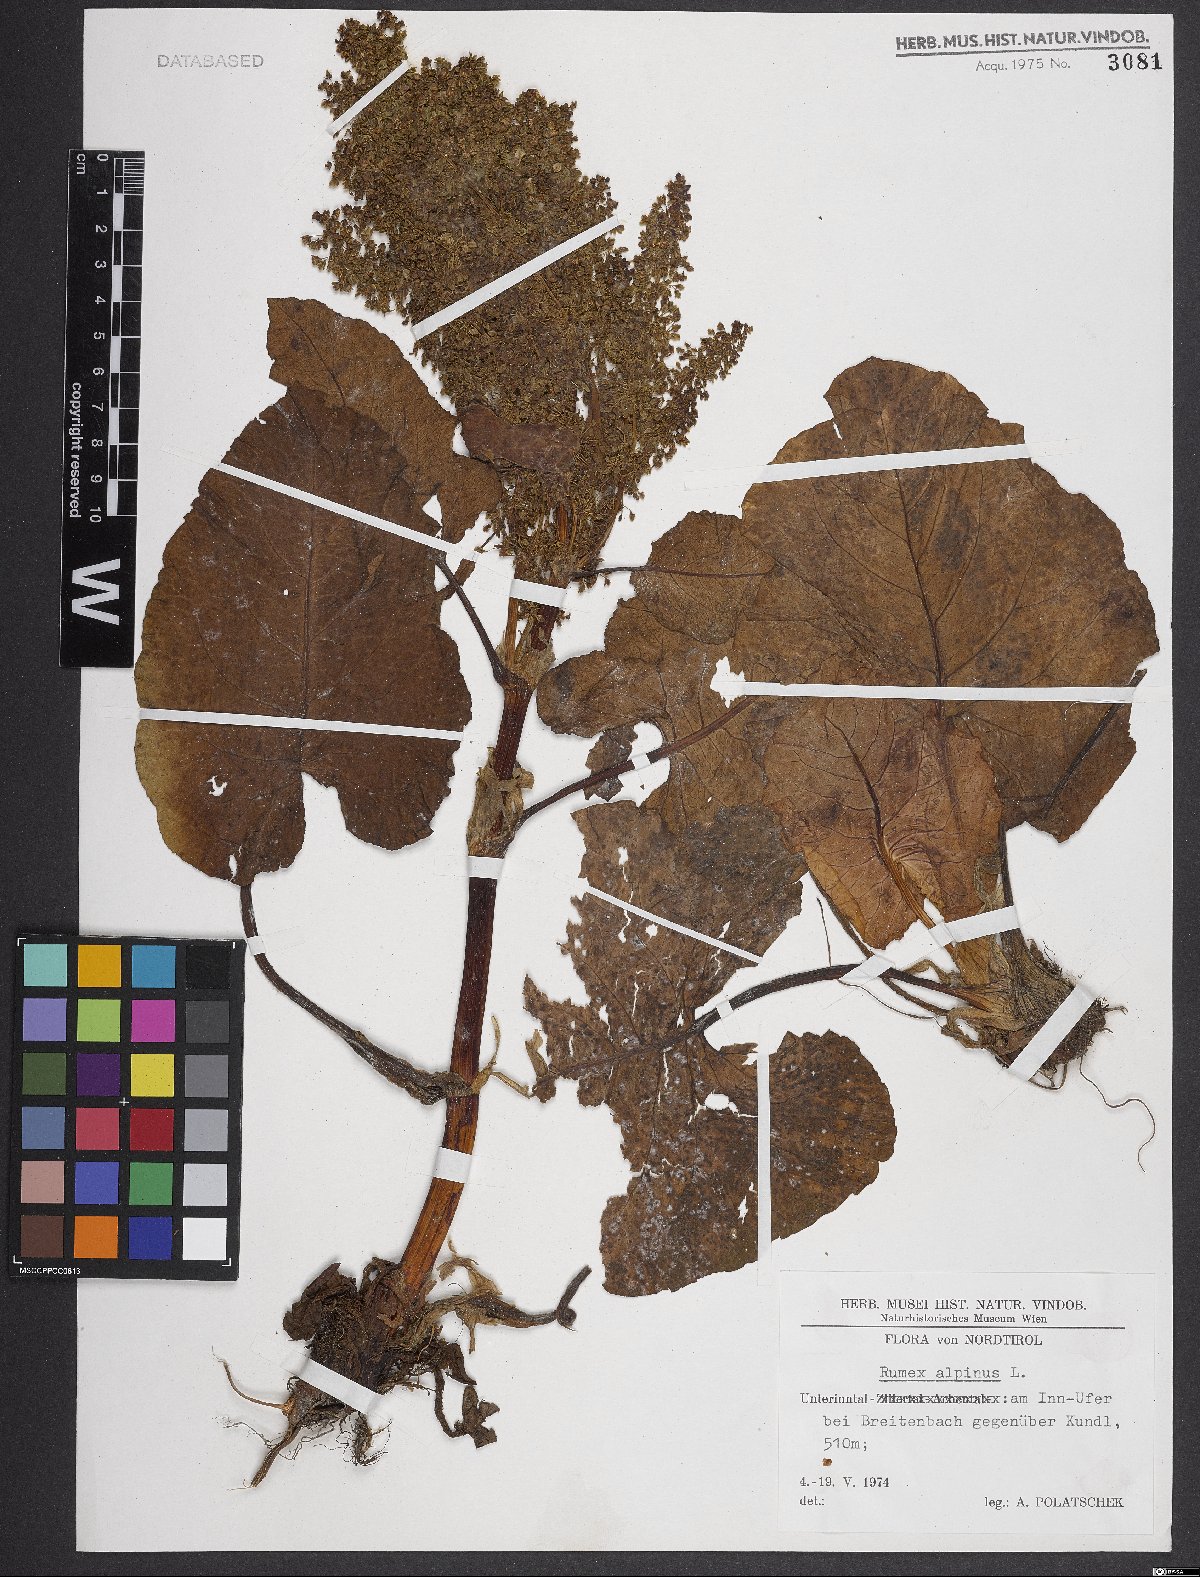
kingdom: Plantae
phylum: Tracheophyta
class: Magnoliopsida
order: Caryophyllales
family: Polygonaceae
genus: Rumex
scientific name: Rumex alpinus
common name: Alpine dock
